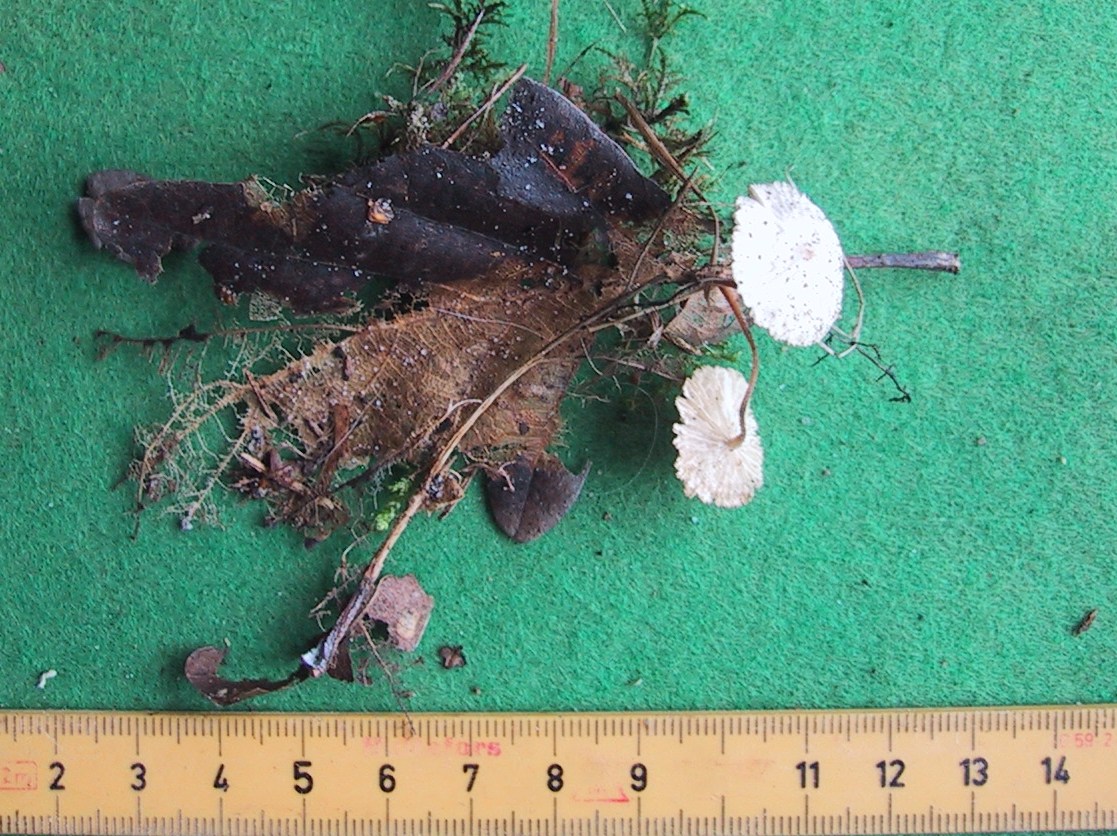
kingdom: Fungi
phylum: Basidiomycota
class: Agaricomycetes
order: Agaricales
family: Omphalotaceae
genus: Collybiopsis
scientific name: Collybiopsis vaillantii
